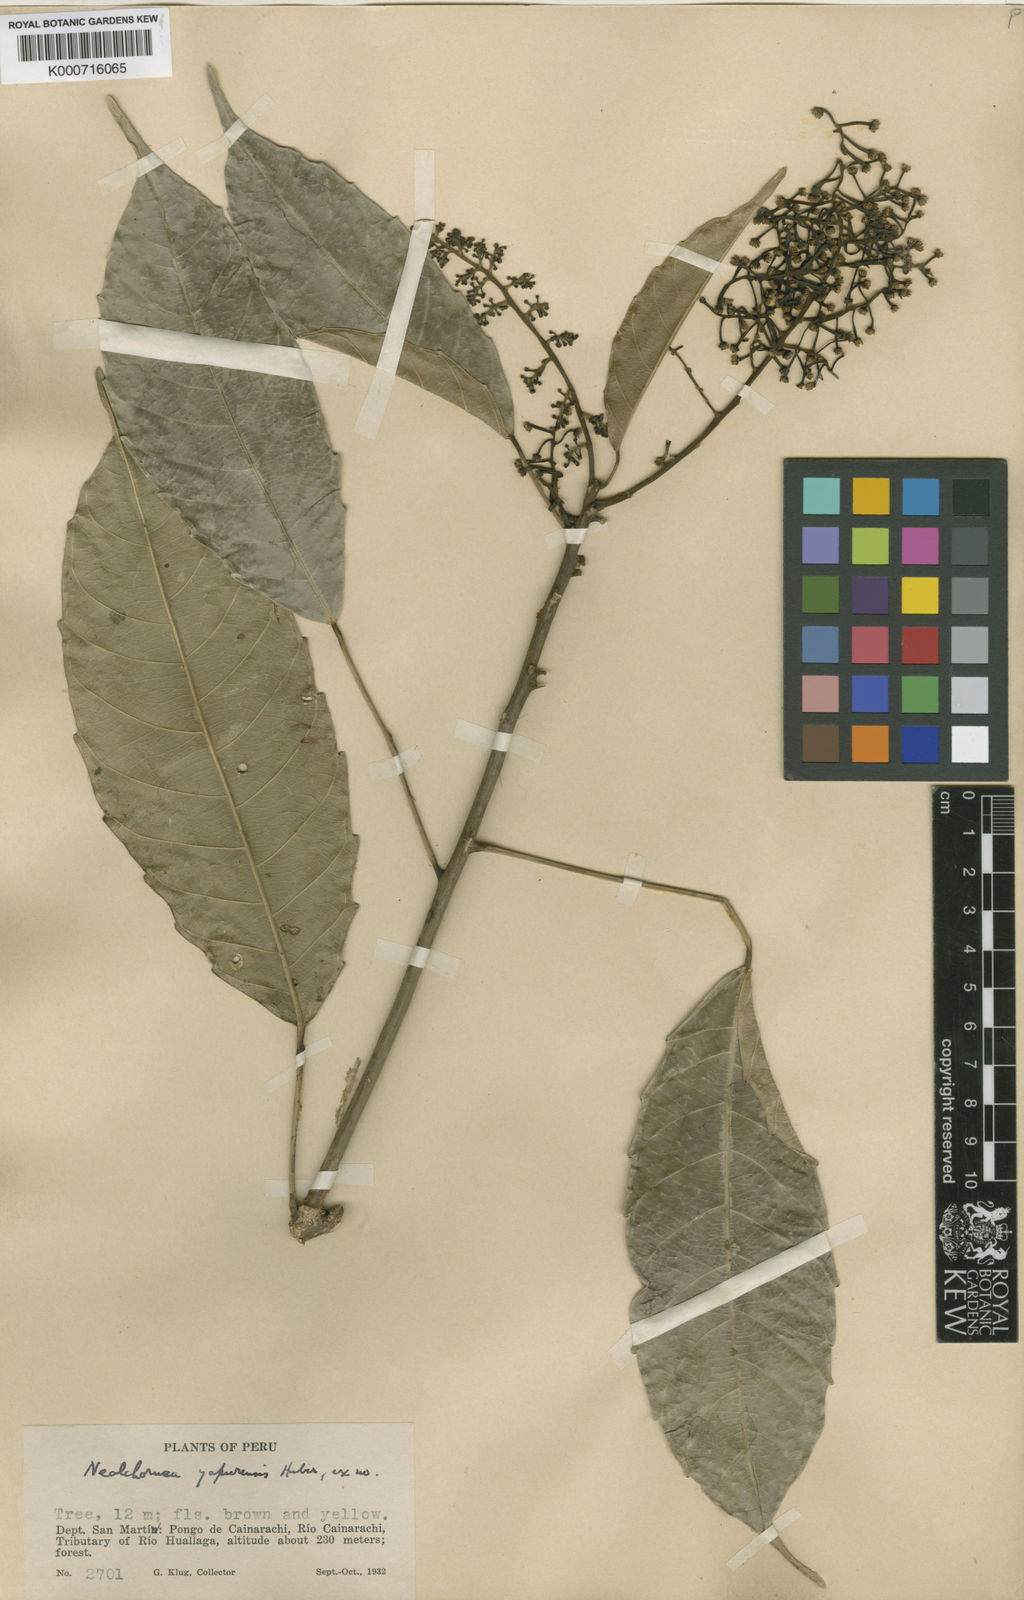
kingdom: Plantae
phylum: Tracheophyta
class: Magnoliopsida
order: Malpighiales
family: Euphorbiaceae
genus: Nealchornea
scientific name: Nealchornea yapurensis
